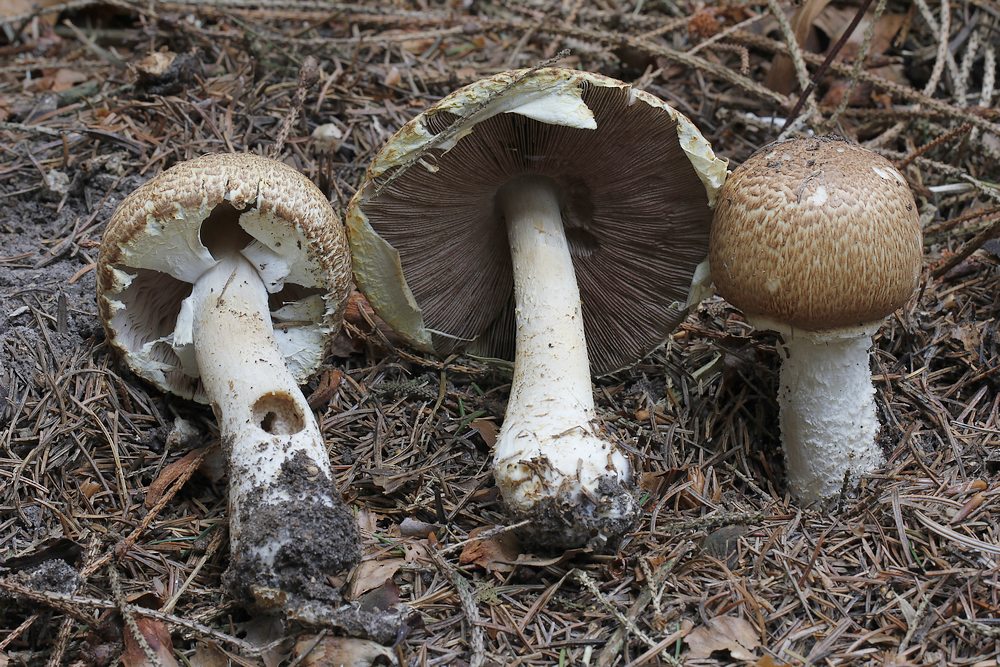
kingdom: Fungi
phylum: Basidiomycota
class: Agaricomycetes
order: Agaricales
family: Agaricaceae
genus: Agaricus
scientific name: Agaricus augustus
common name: prægtig champignon
